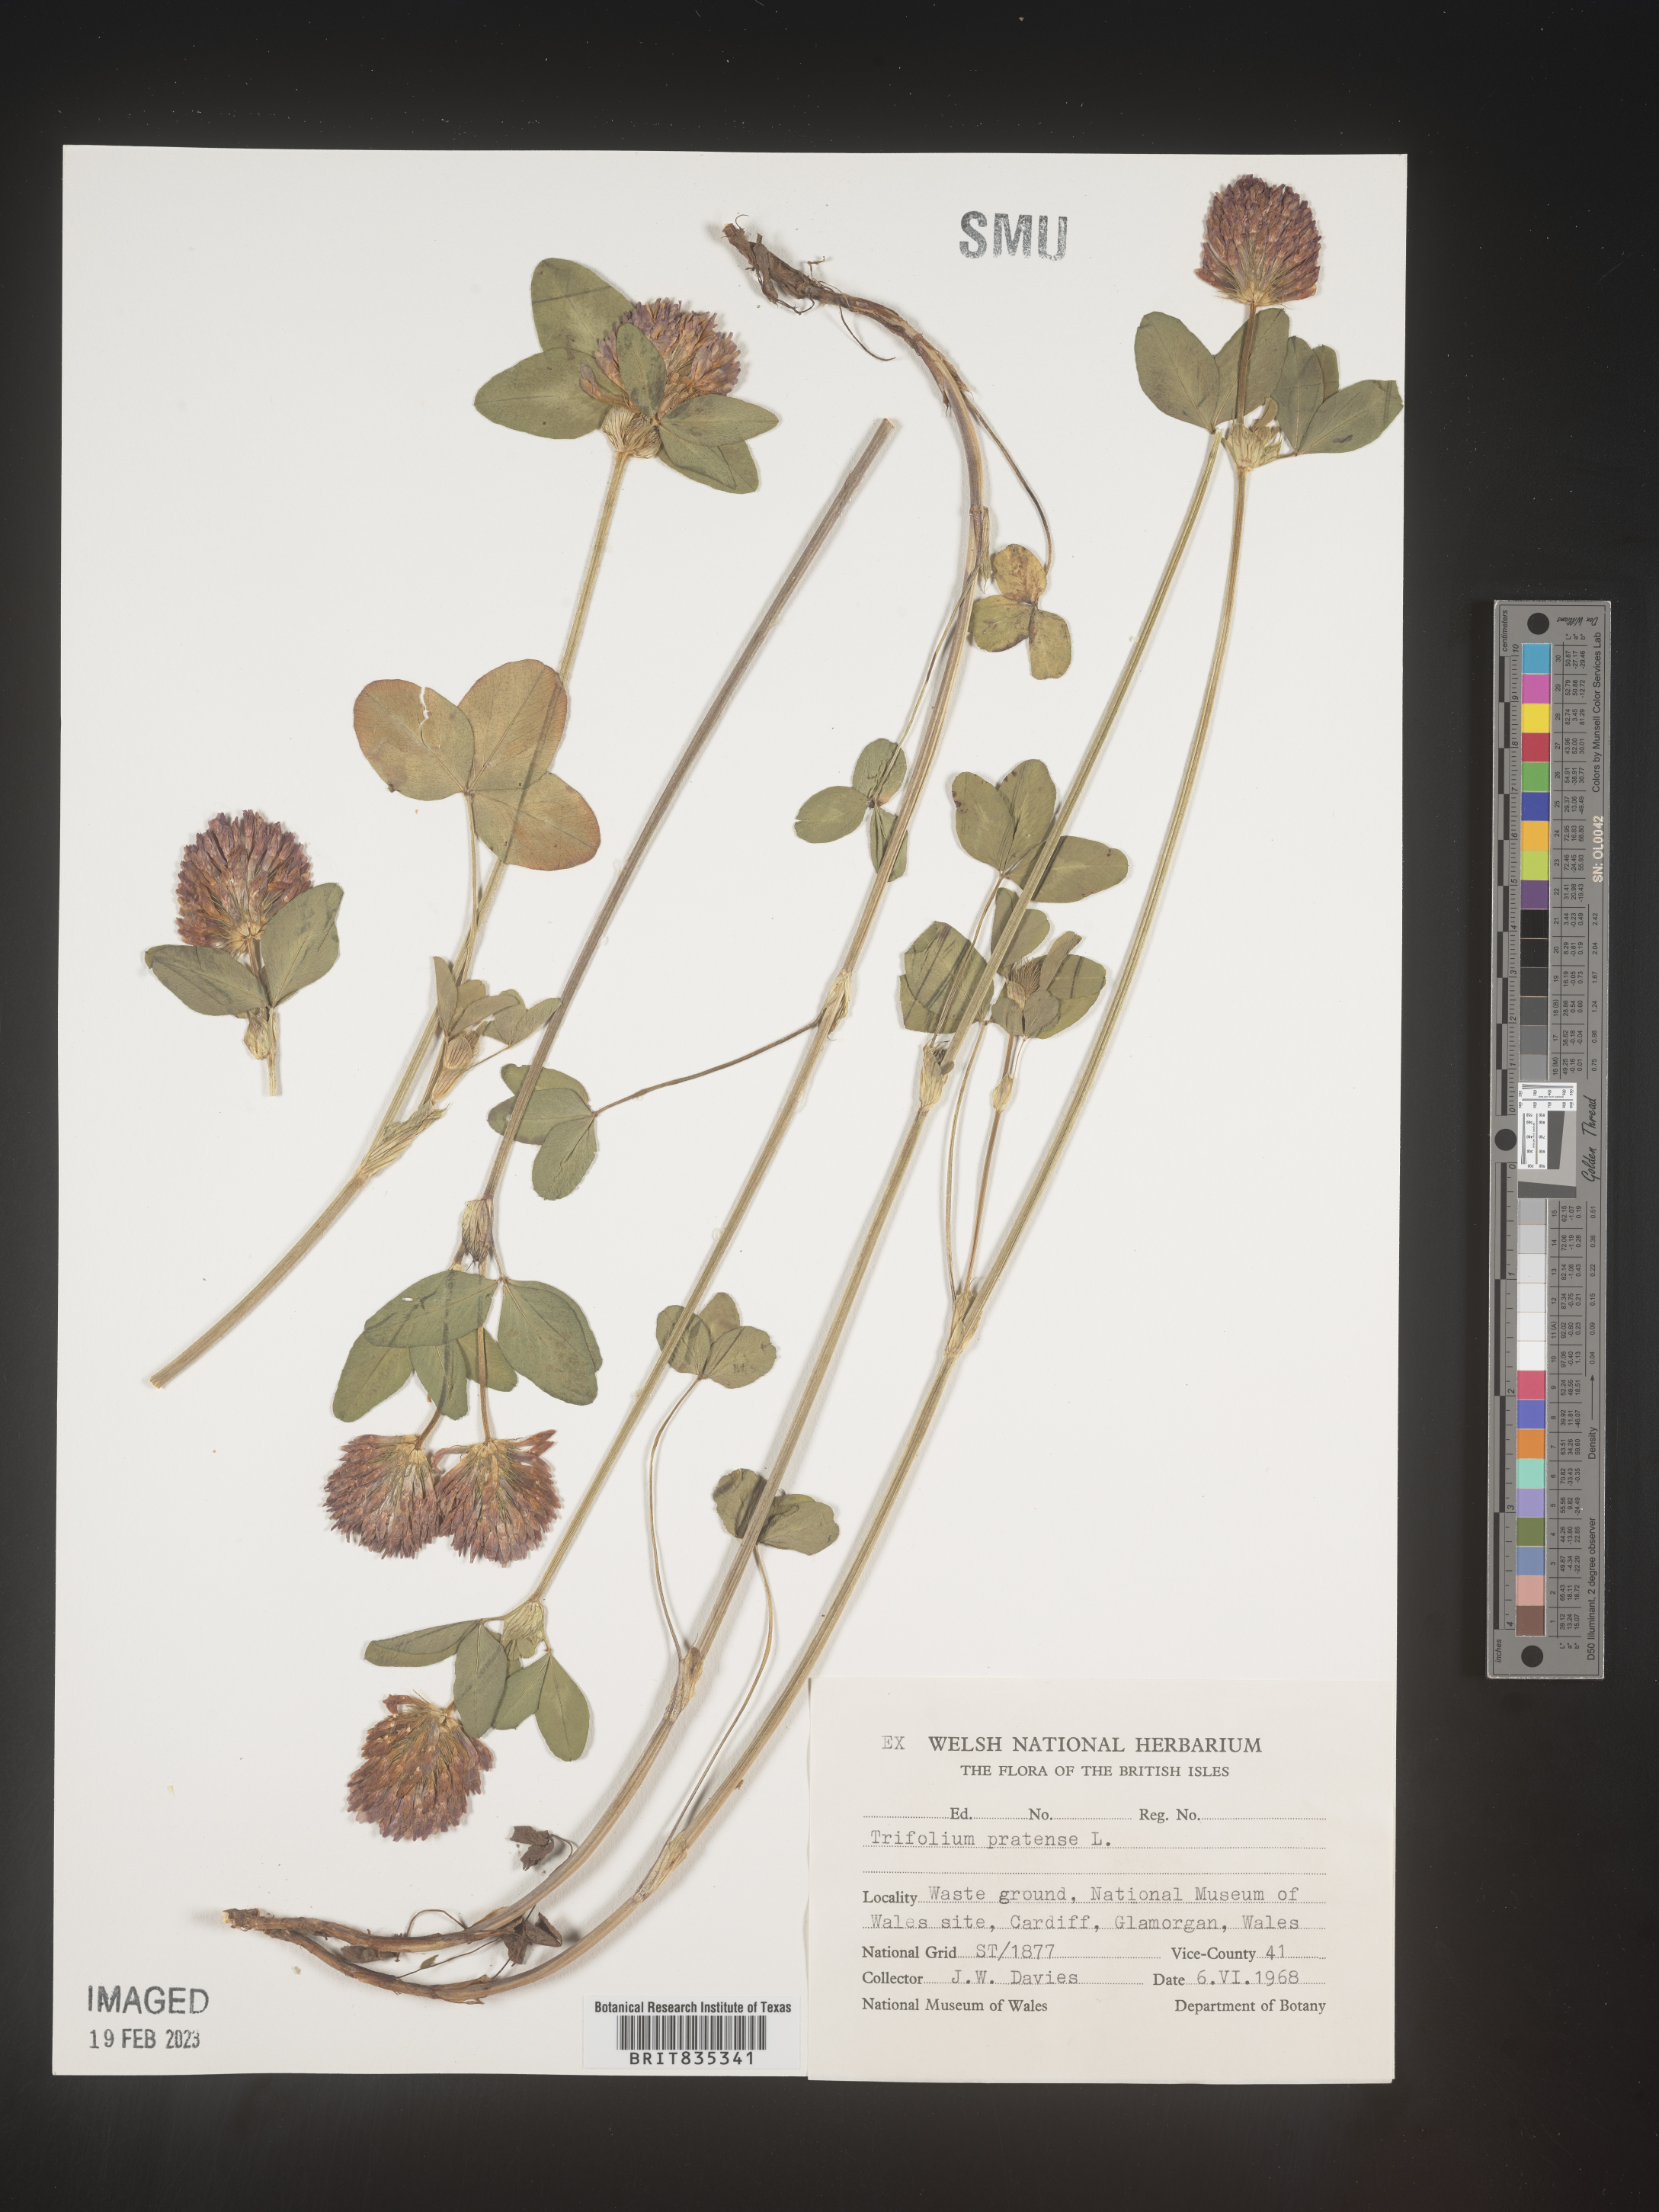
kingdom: Plantae
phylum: Tracheophyta
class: Magnoliopsida
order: Fabales
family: Fabaceae
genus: Trifolium
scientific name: Trifolium
